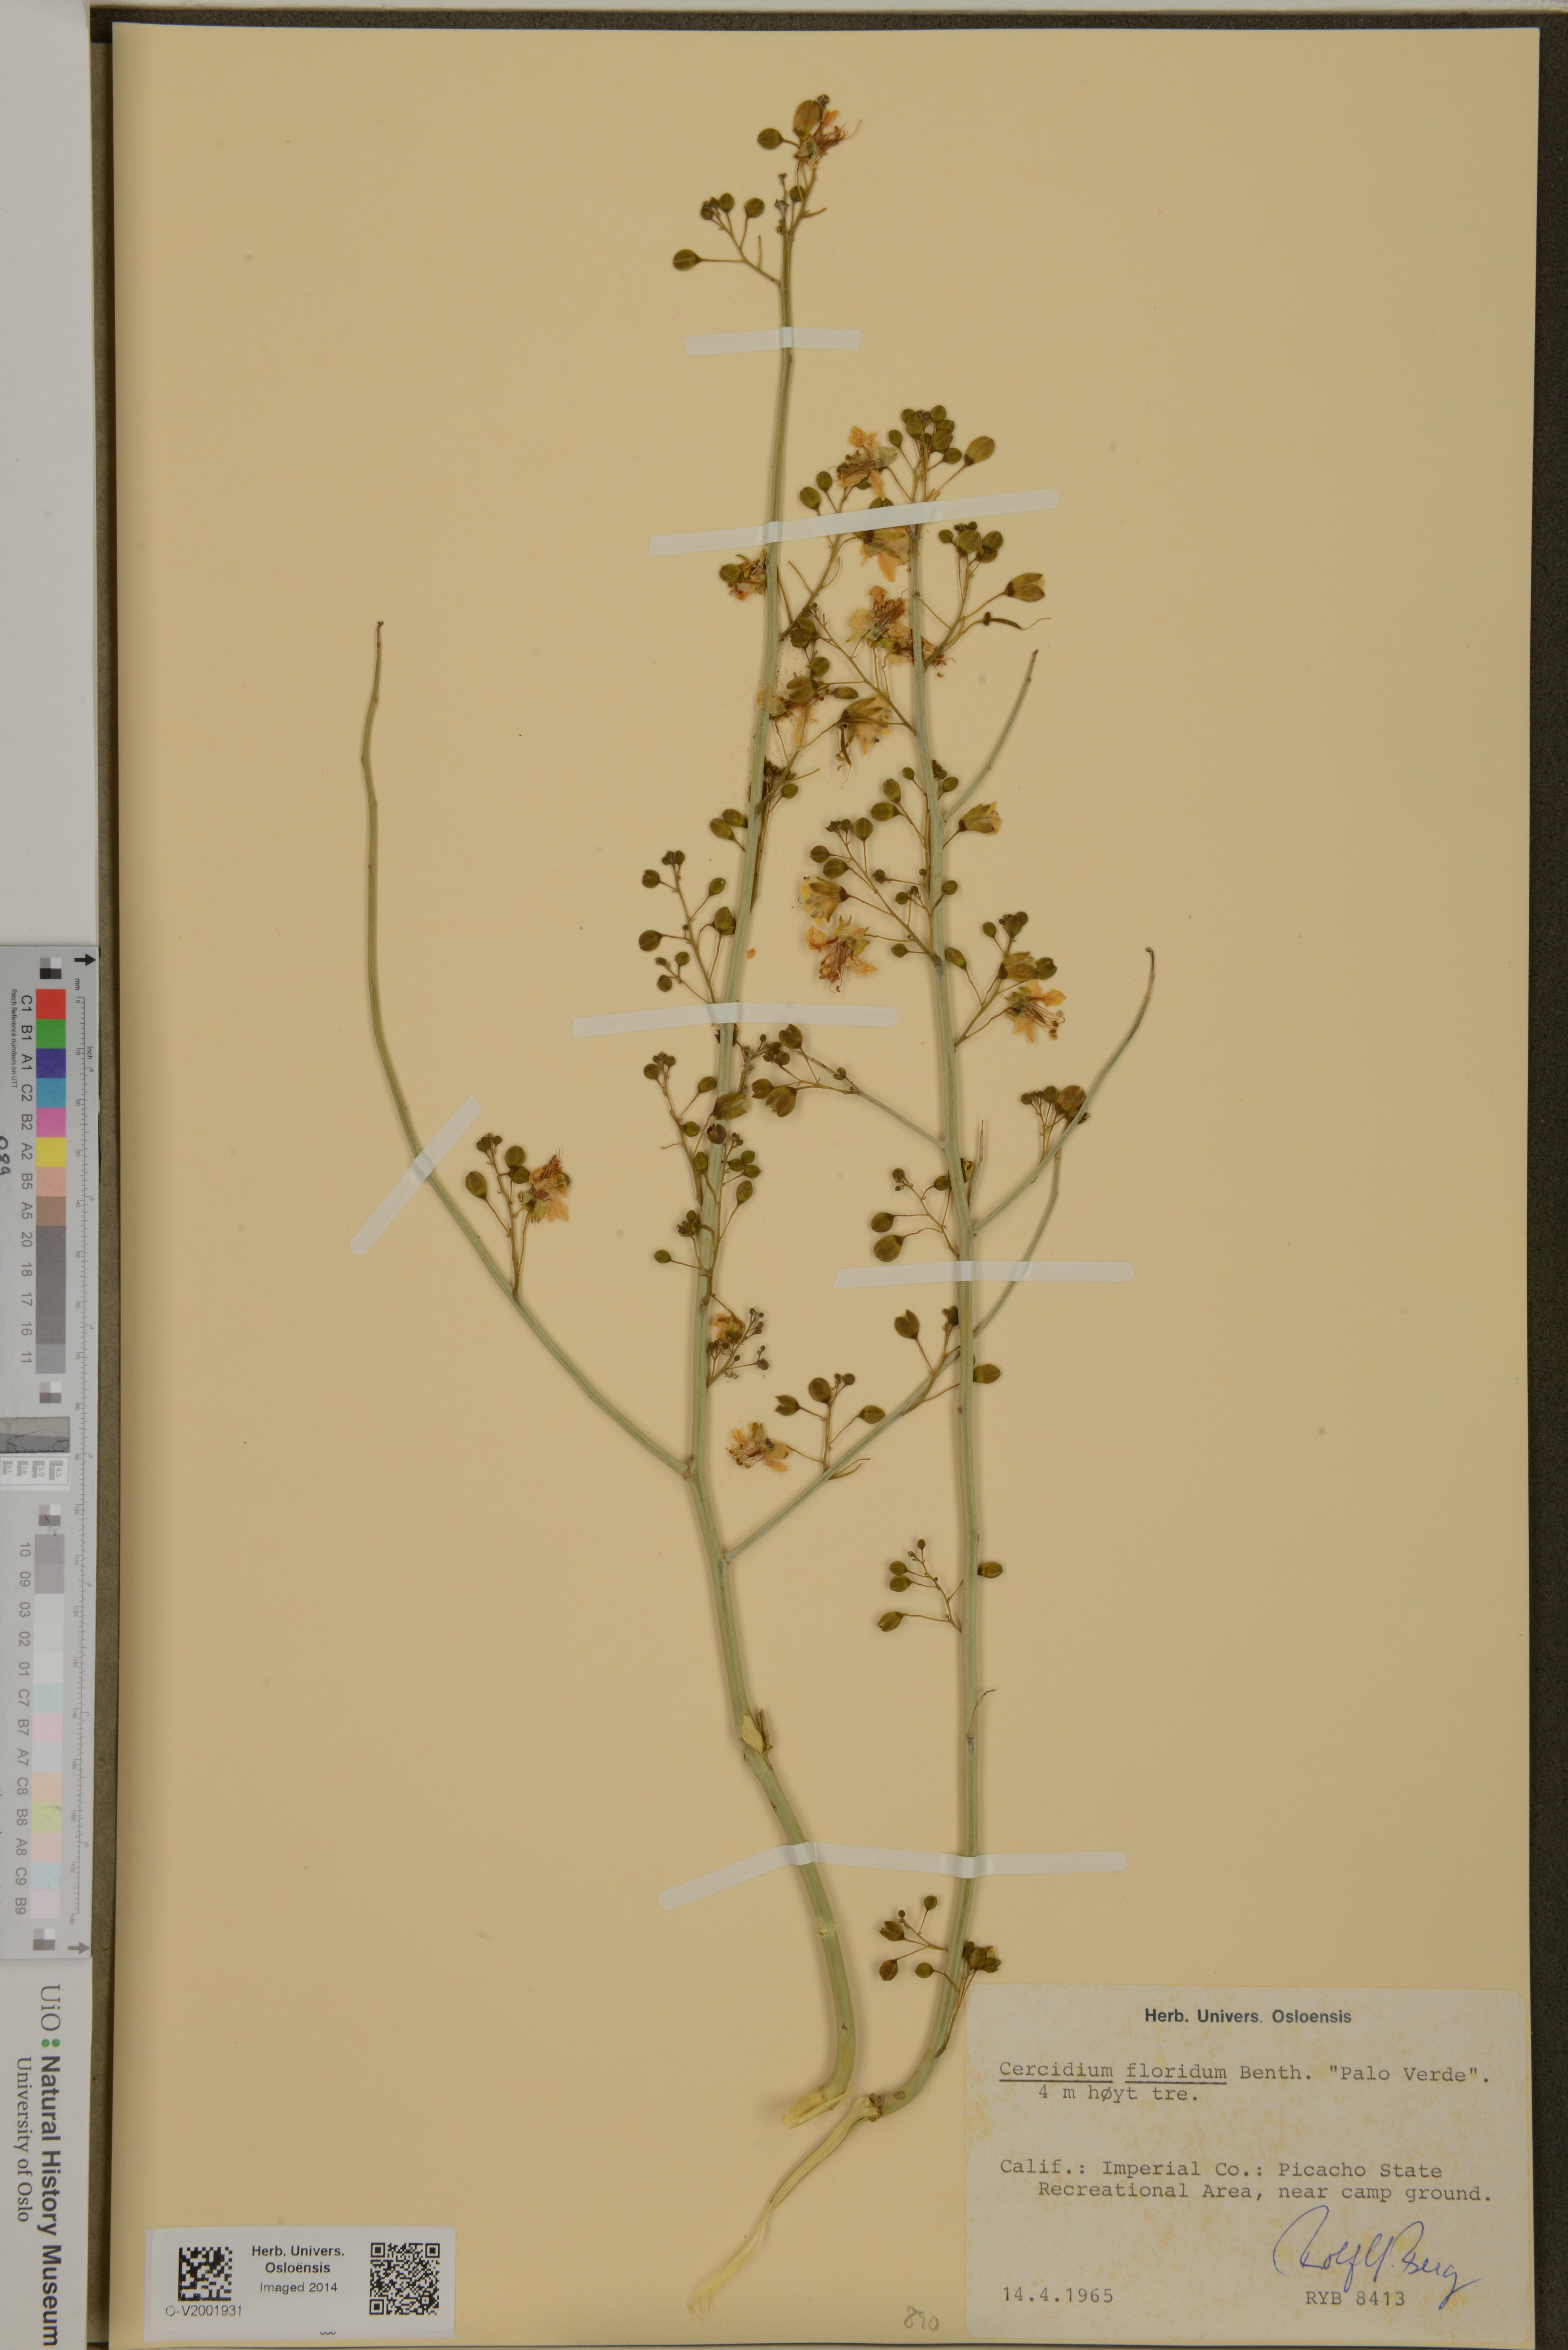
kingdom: Plantae
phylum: Tracheophyta
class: Magnoliopsida
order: Fabales
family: Fabaceae
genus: Parkinsonia
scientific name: Parkinsonia florida
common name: Blue paloverde
